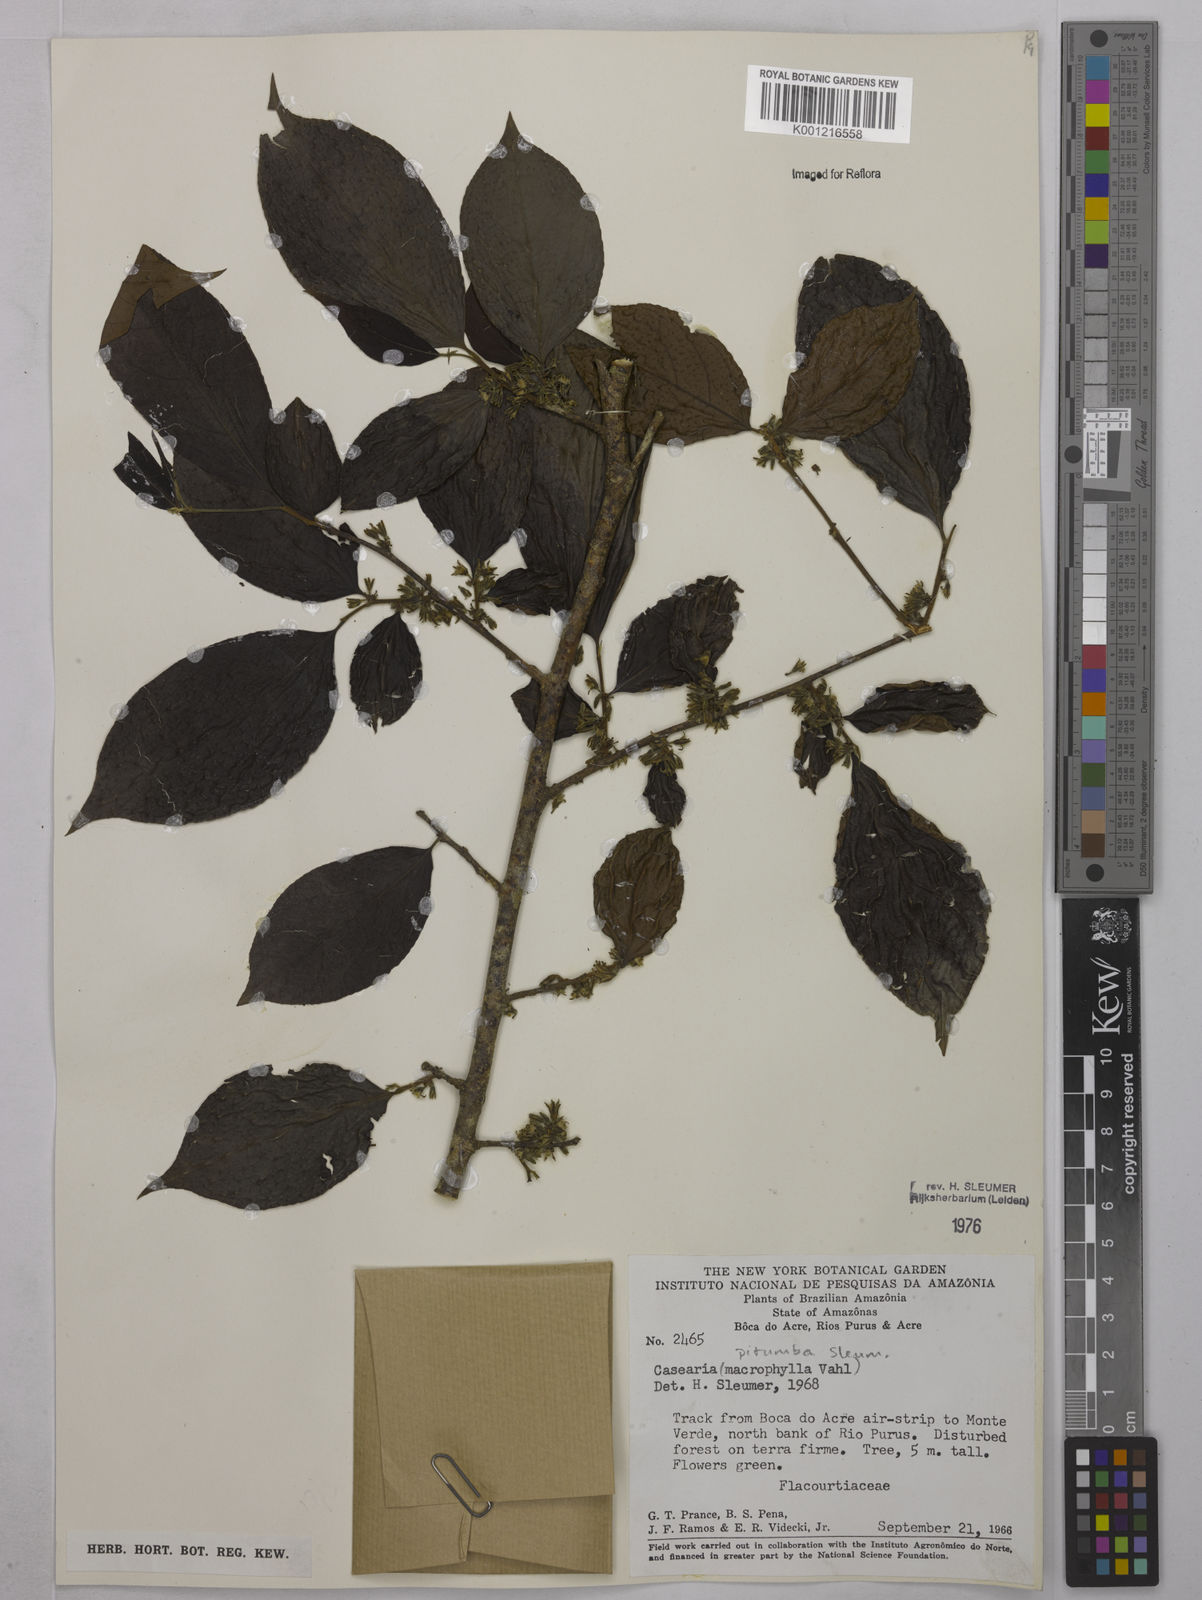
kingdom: Plantae
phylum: Tracheophyta
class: Magnoliopsida
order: Malpighiales
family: Salicaceae
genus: Casearia
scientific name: Casearia pitumba
